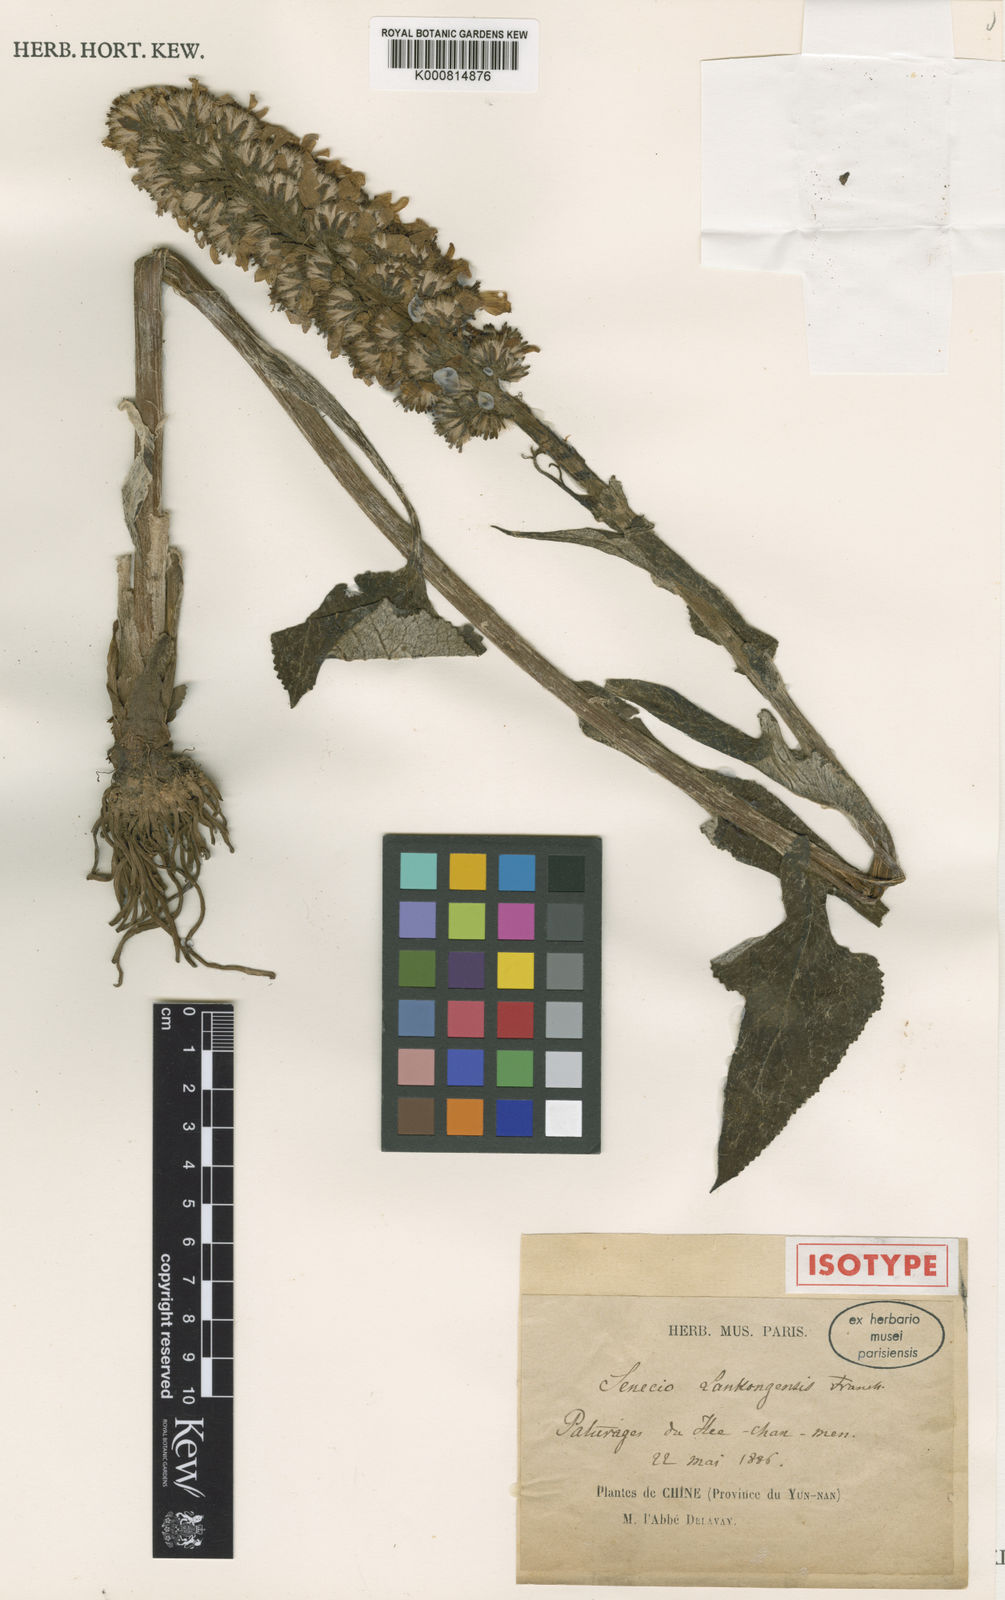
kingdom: Plantae
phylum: Tracheophyta
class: Magnoliopsida
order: Asterales
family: Asteraceae
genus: Ligularia
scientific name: Ligularia lankongensis
